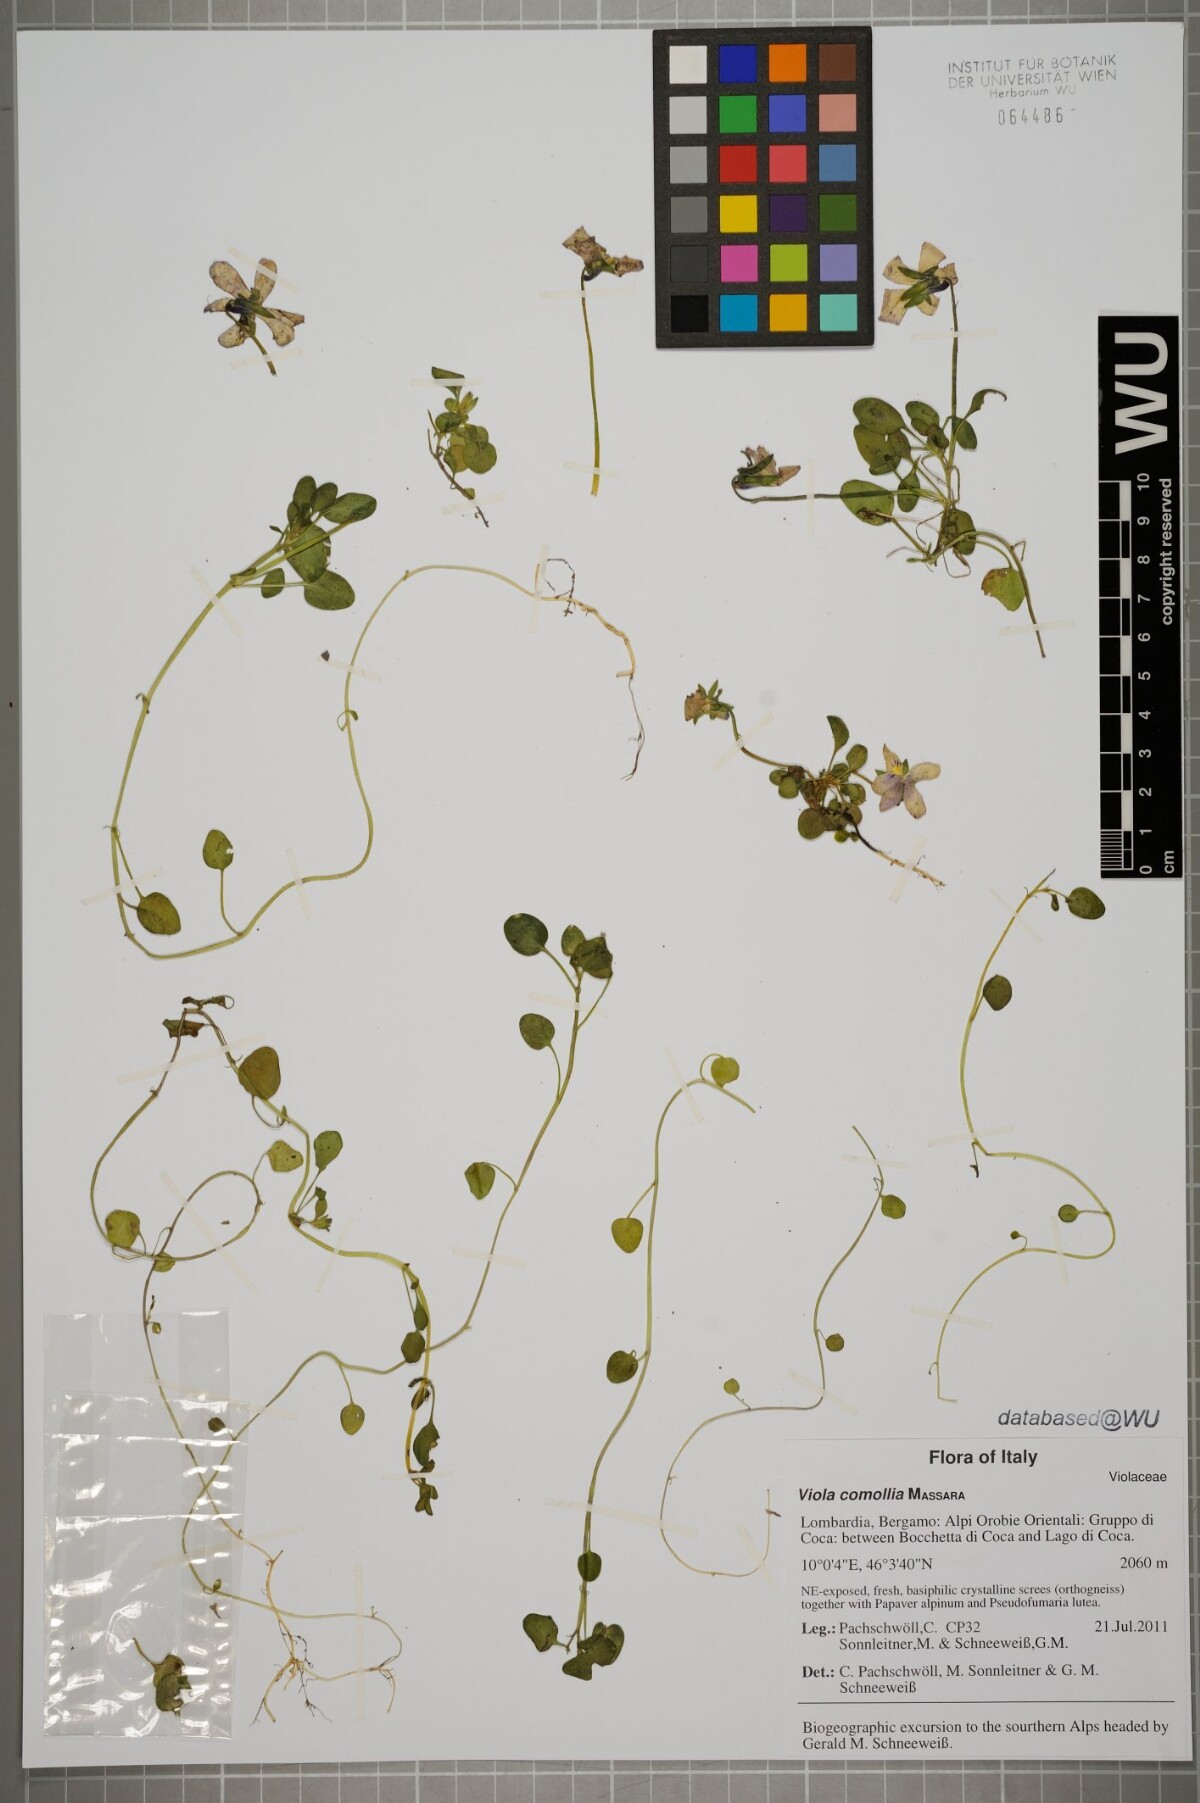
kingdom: Plantae
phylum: Tracheophyta
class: Magnoliopsida
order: Malpighiales
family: Violaceae
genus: Viola
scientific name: Viola comollia
